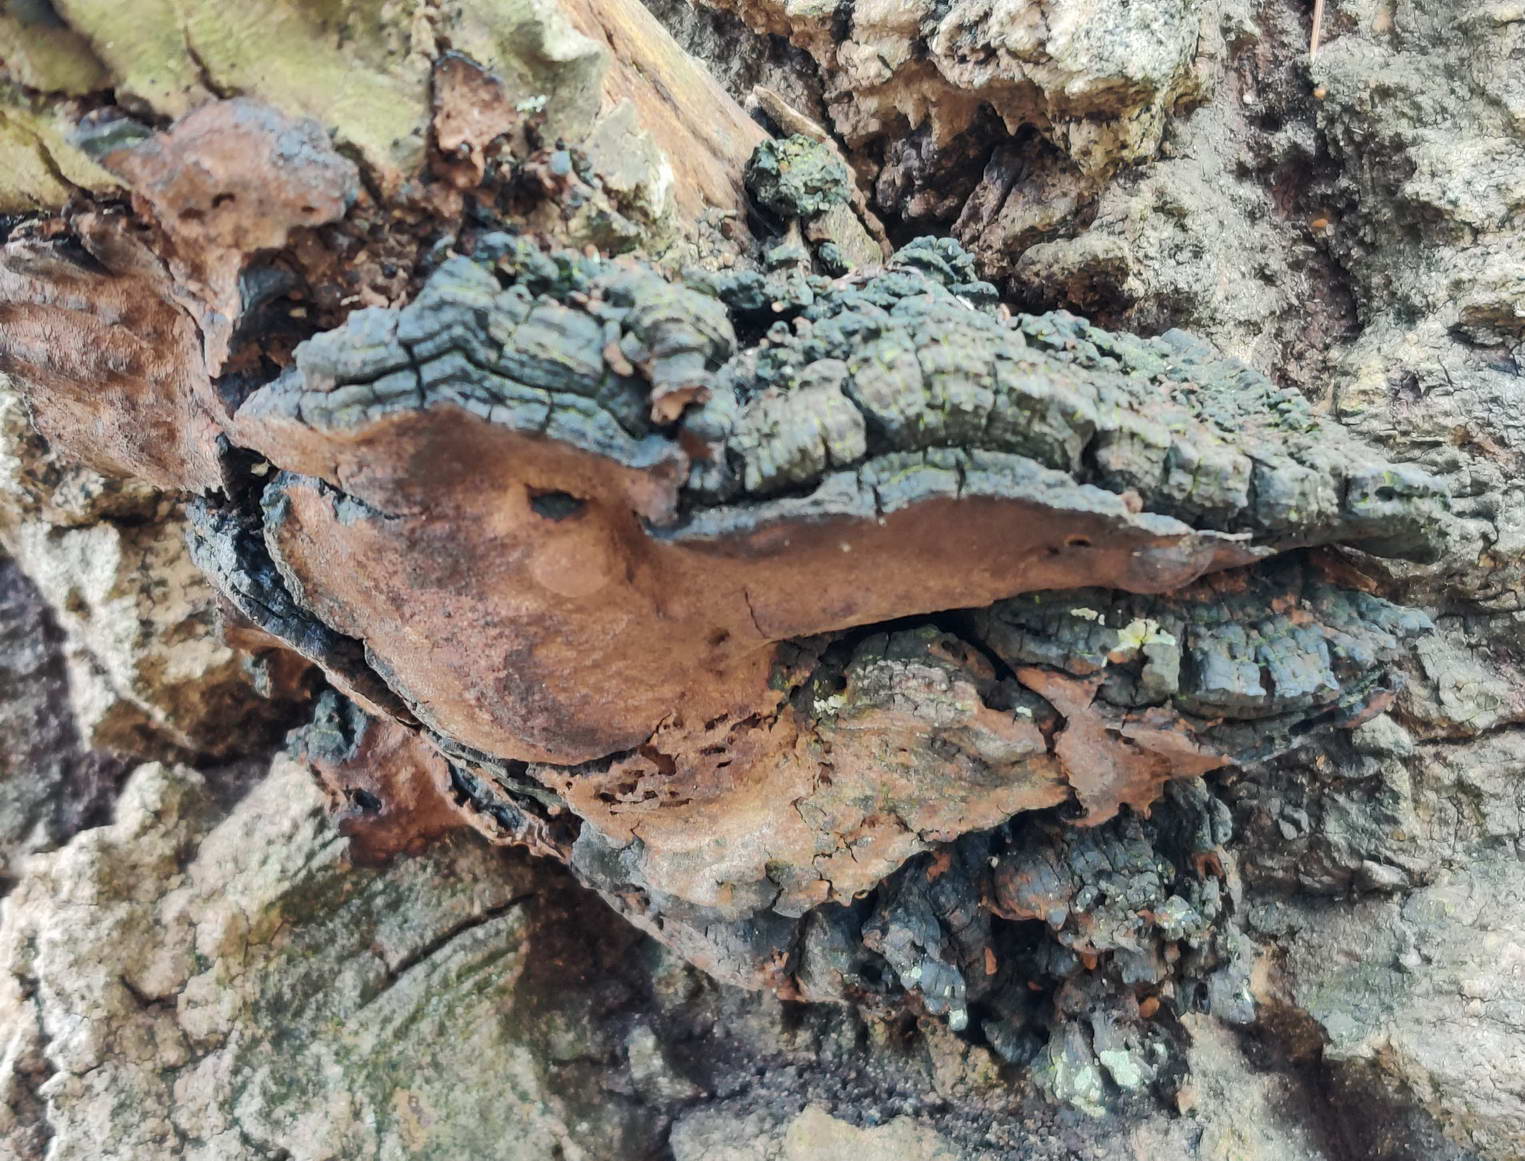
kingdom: Fungi
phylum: Basidiomycota
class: Agaricomycetes
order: Hymenochaetales
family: Hymenochaetaceae
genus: Phellinus
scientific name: Phellinus tremulae
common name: aspe-ildporesvamp
